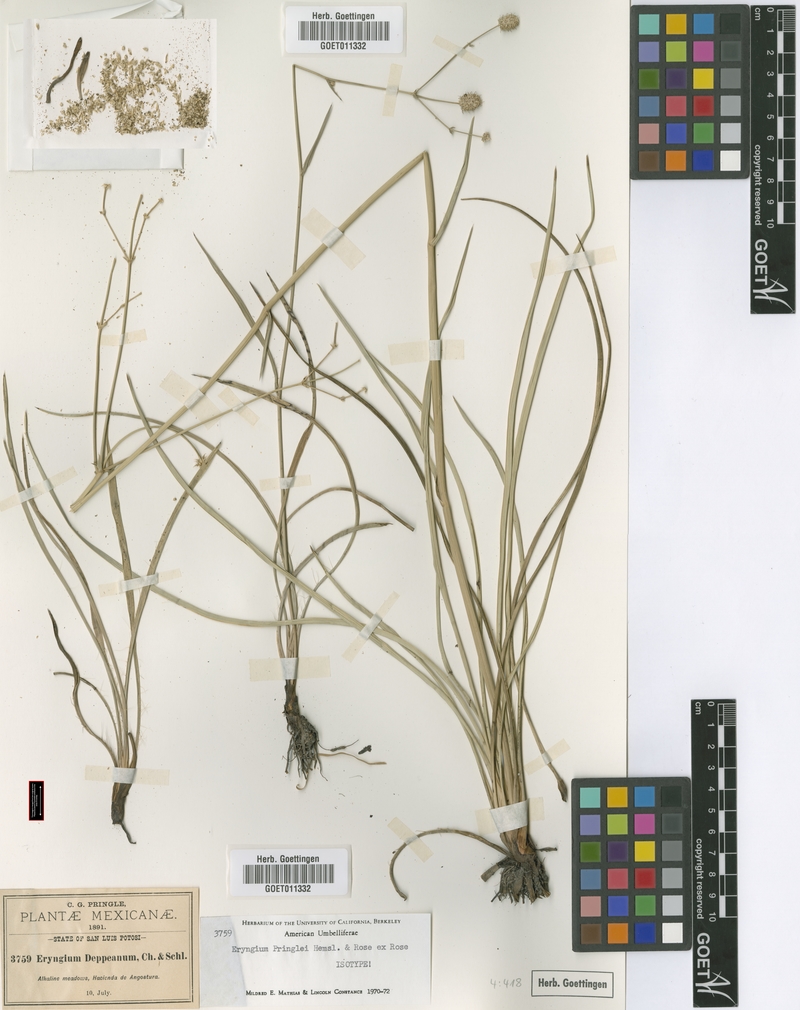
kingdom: Plantae
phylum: Tracheophyta
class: Magnoliopsida
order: Apiales
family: Apiaceae
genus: Eryngium
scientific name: Eryngium gramineum
